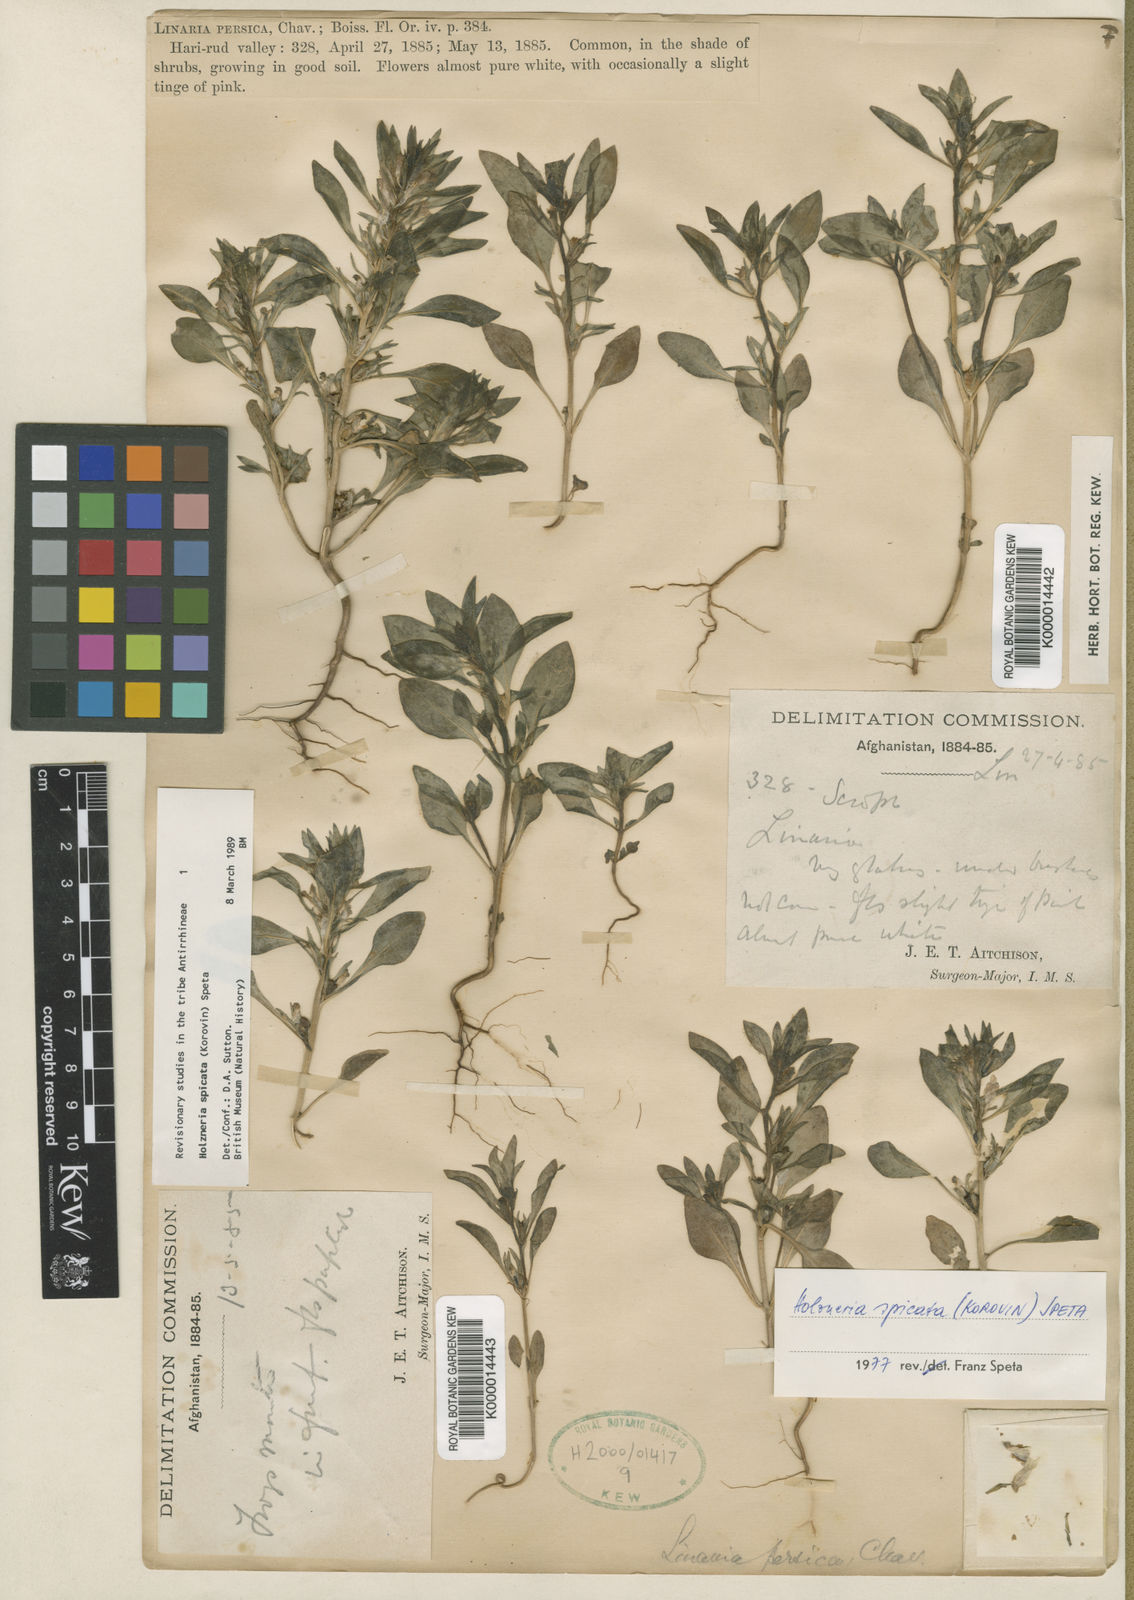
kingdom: Plantae
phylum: Tracheophyta
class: Magnoliopsida
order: Lamiales
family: Plantaginaceae
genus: Holzneria
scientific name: Holzneria spicata
